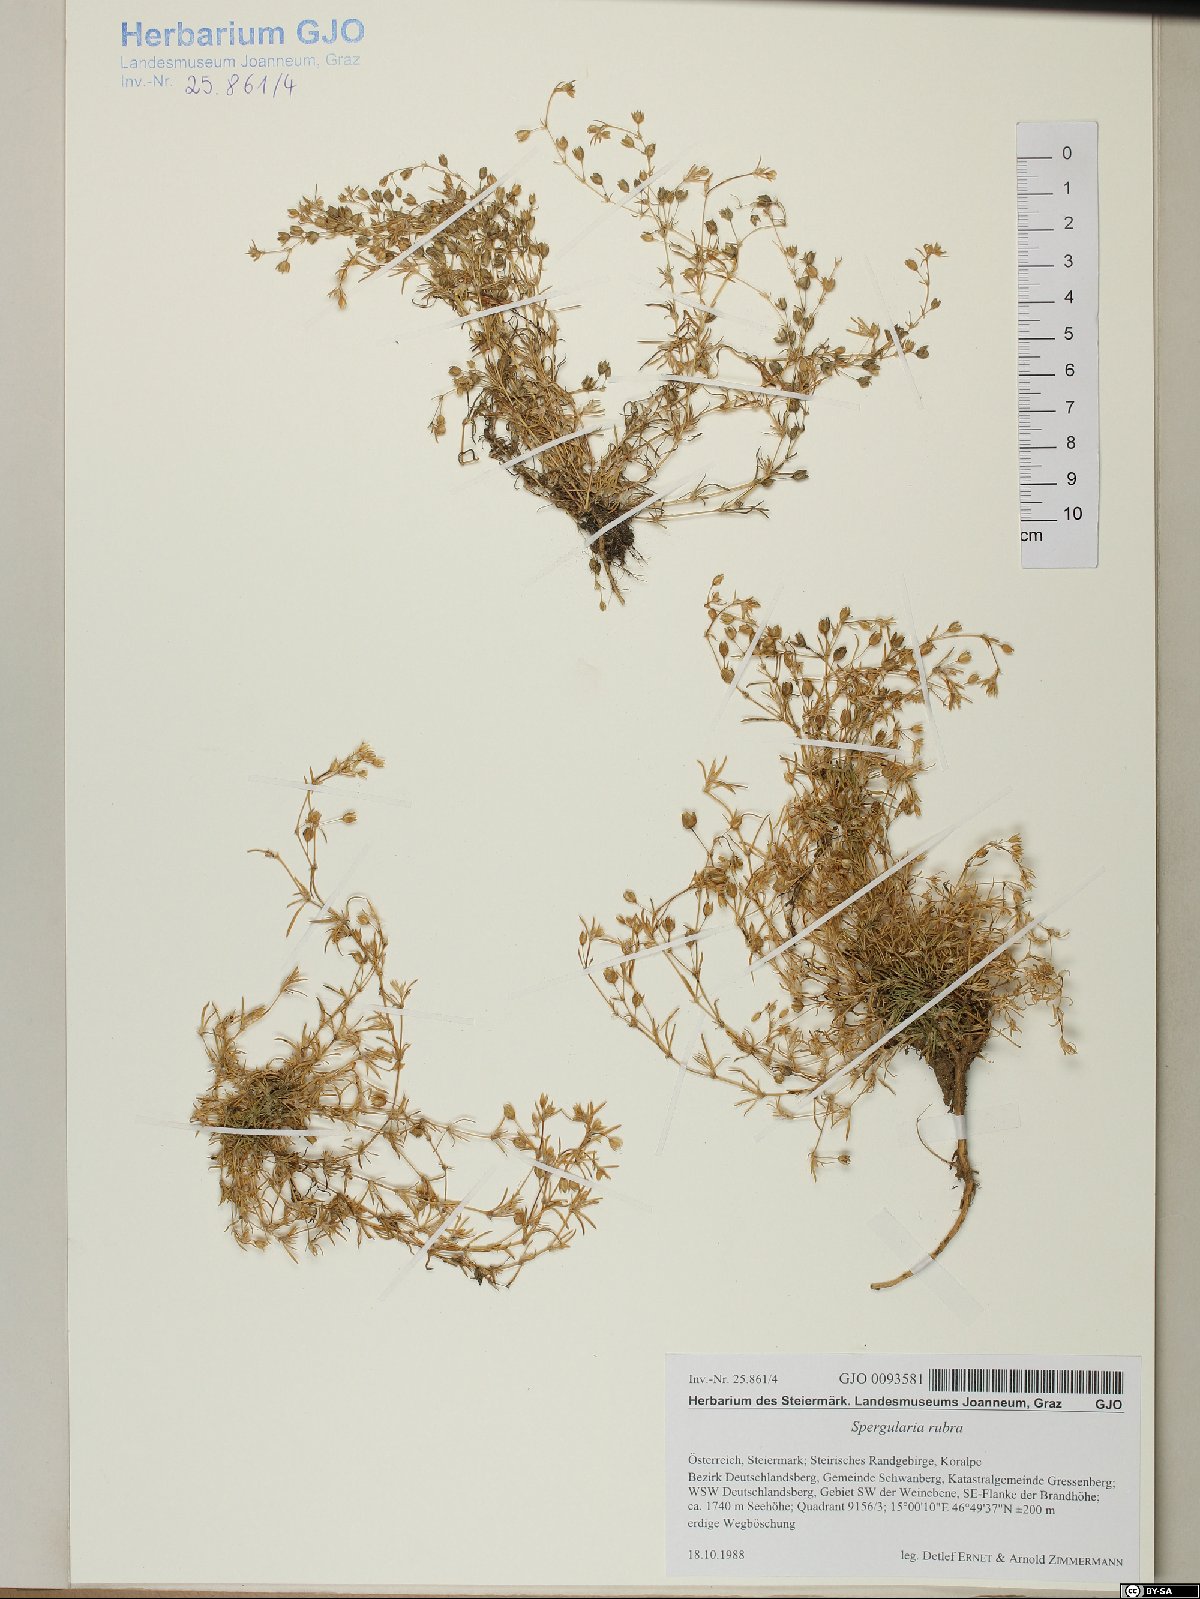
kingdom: Plantae
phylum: Tracheophyta
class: Magnoliopsida
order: Caryophyllales
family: Caryophyllaceae
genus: Spergularia
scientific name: Spergularia rubra
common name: Red sand-spurrey
